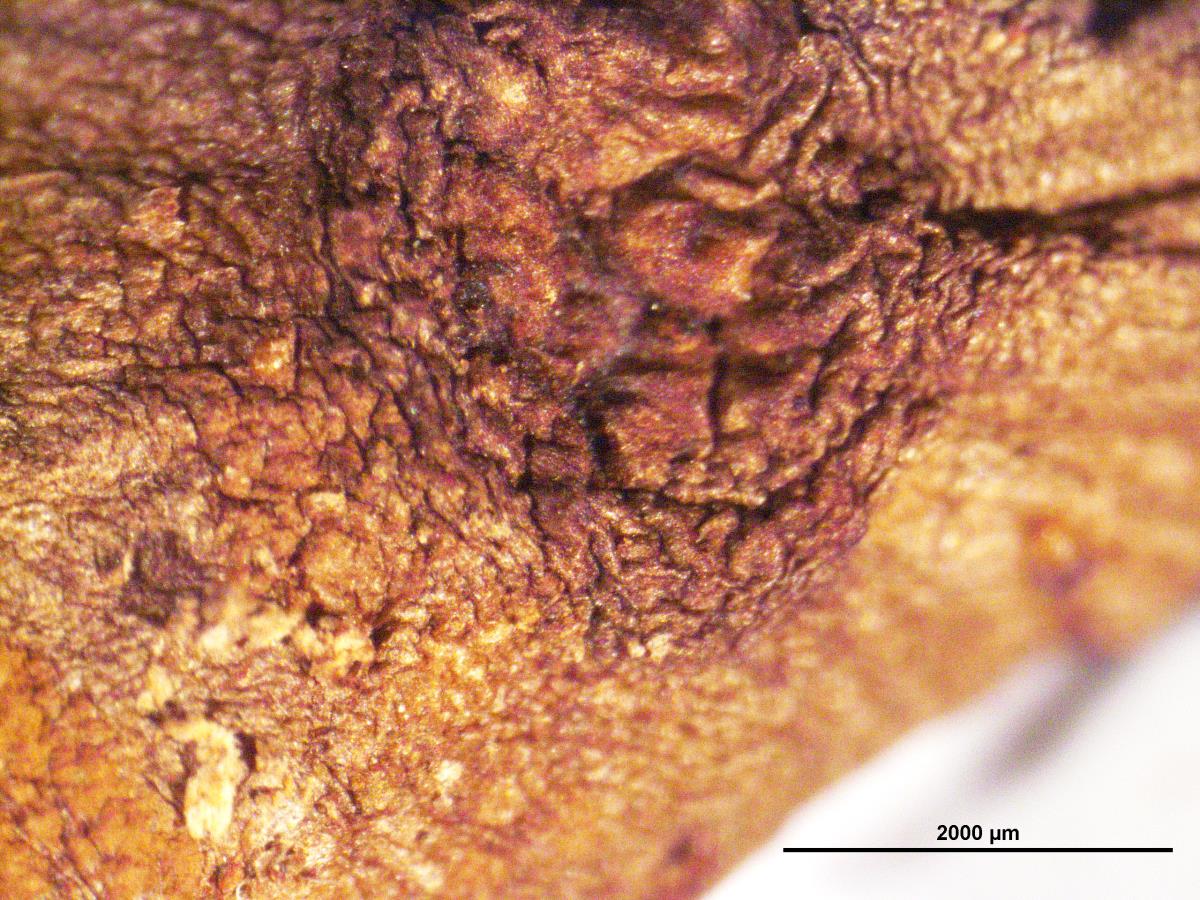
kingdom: Fungi
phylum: Basidiomycota
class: Agaricomycetes
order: Agaricales
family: Psathyrellaceae
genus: Psathyrella
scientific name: Psathyrella
